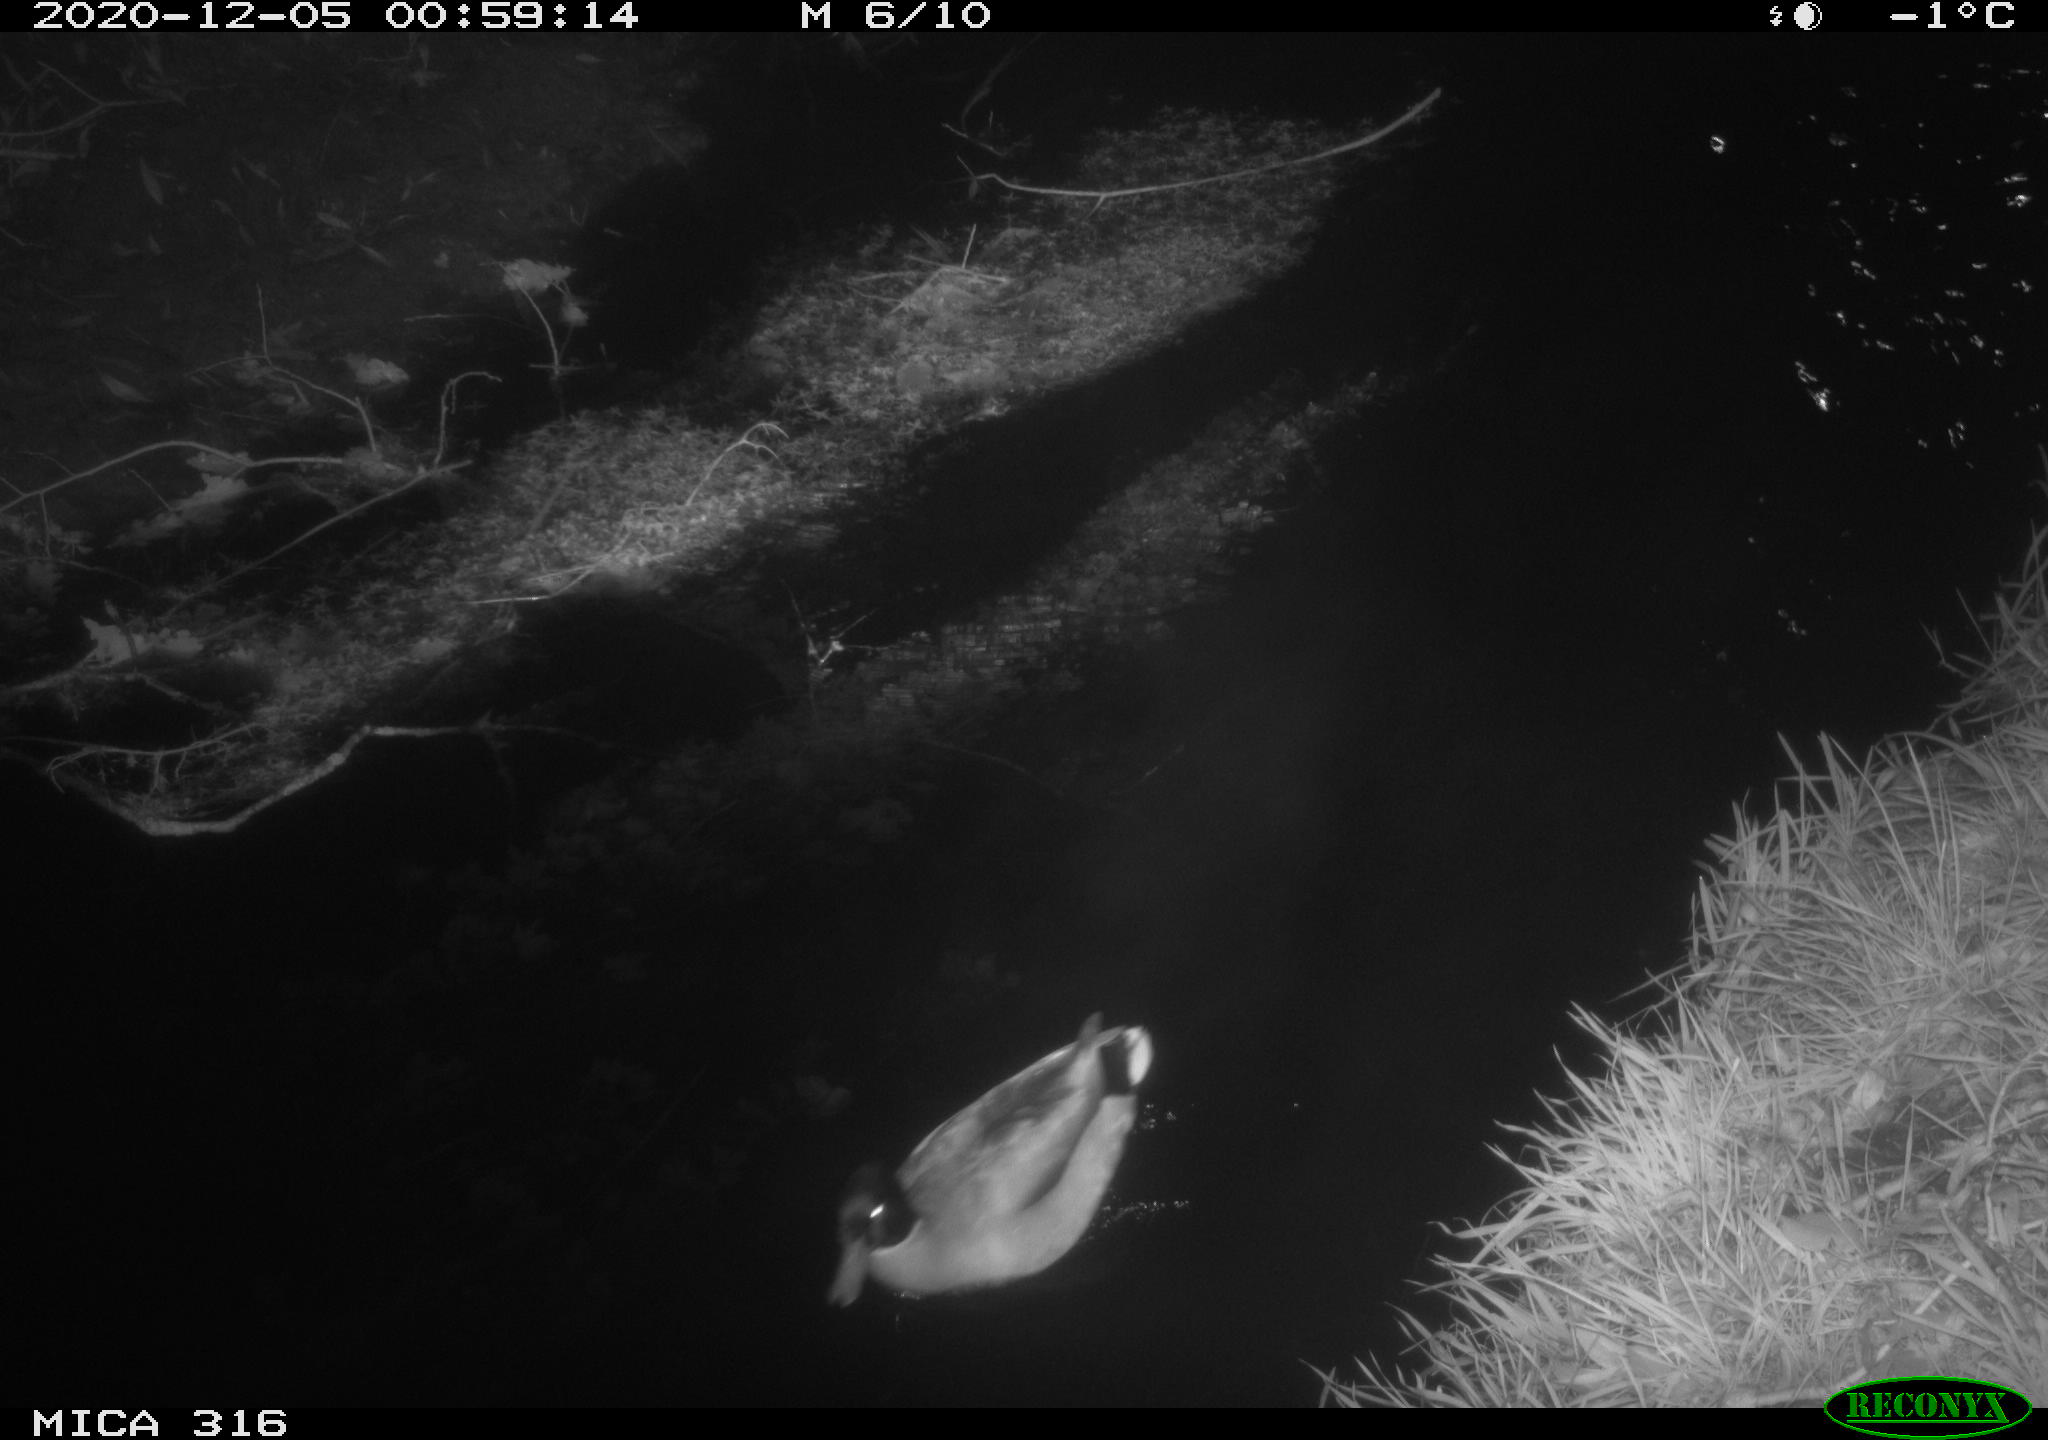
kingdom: Animalia
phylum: Chordata
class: Aves
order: Anseriformes
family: Anatidae
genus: Anas
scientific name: Anas platyrhynchos
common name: Mallard
